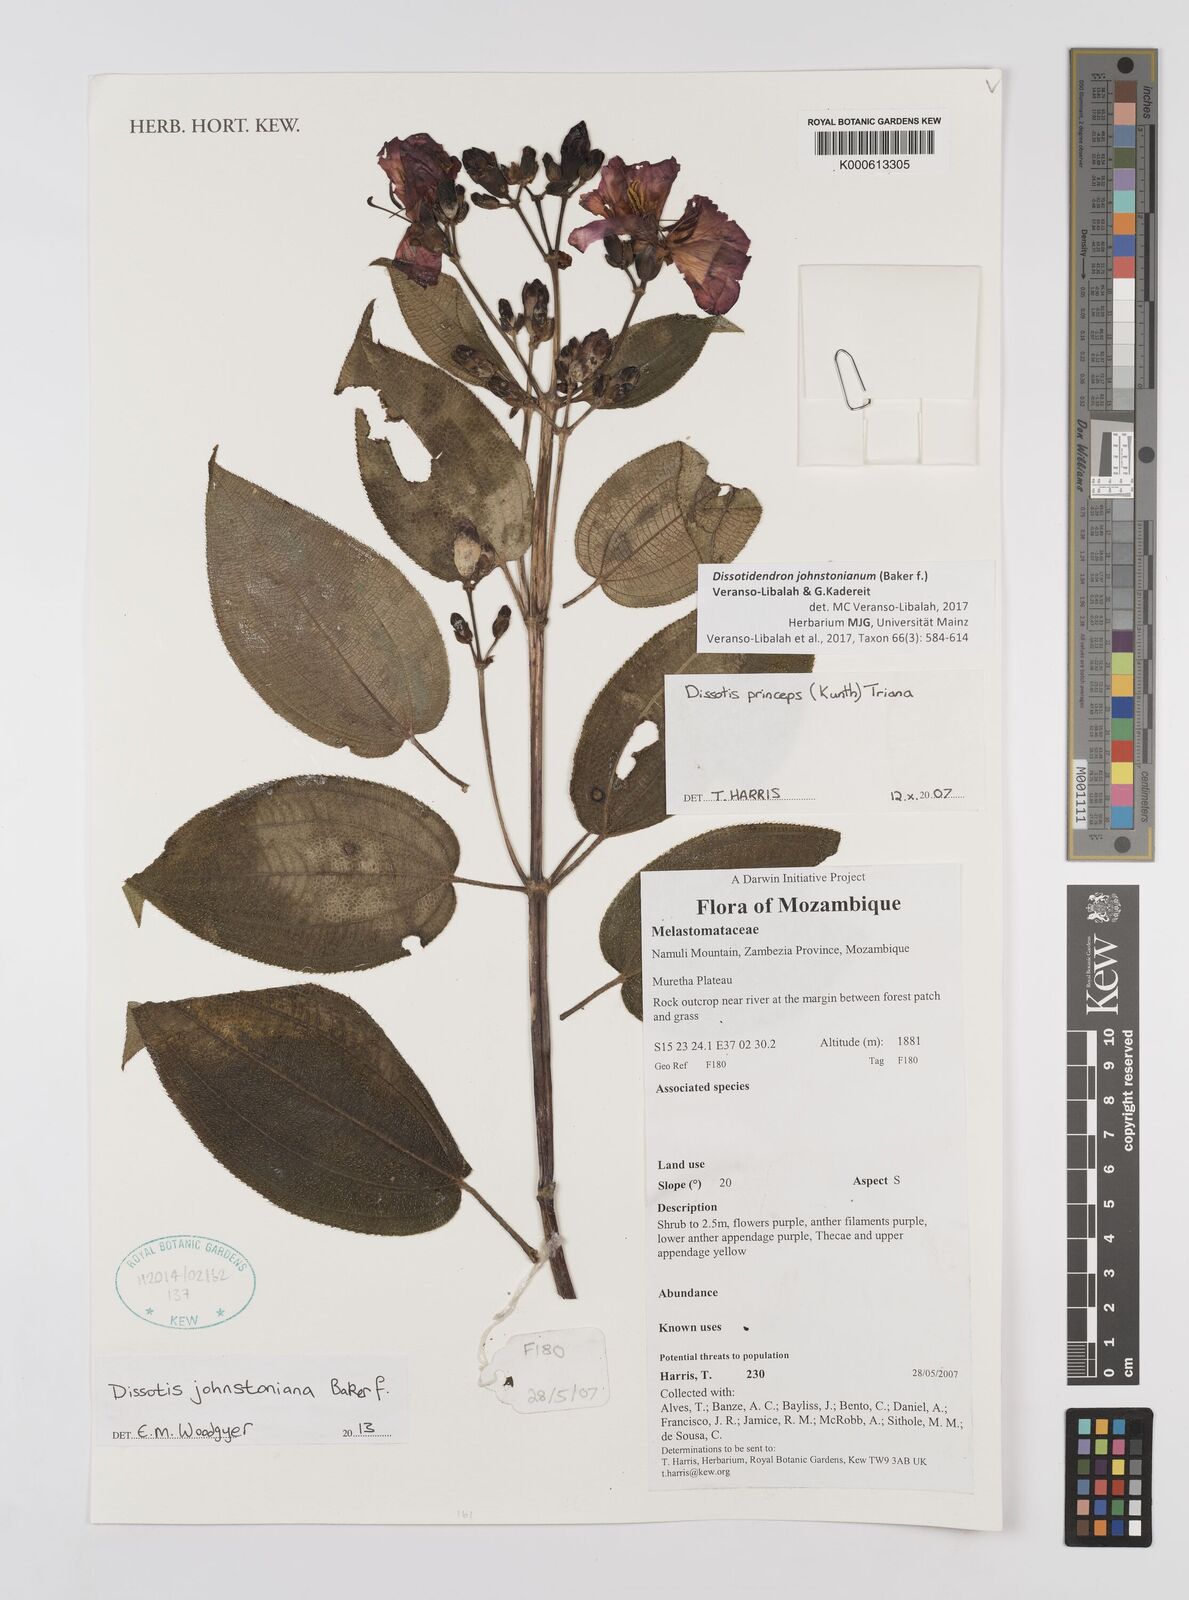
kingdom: Plantae
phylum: Tracheophyta
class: Magnoliopsida
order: Myrtales
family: Melastomataceae
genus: Dissotidendron
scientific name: Dissotidendron johnstonianum
